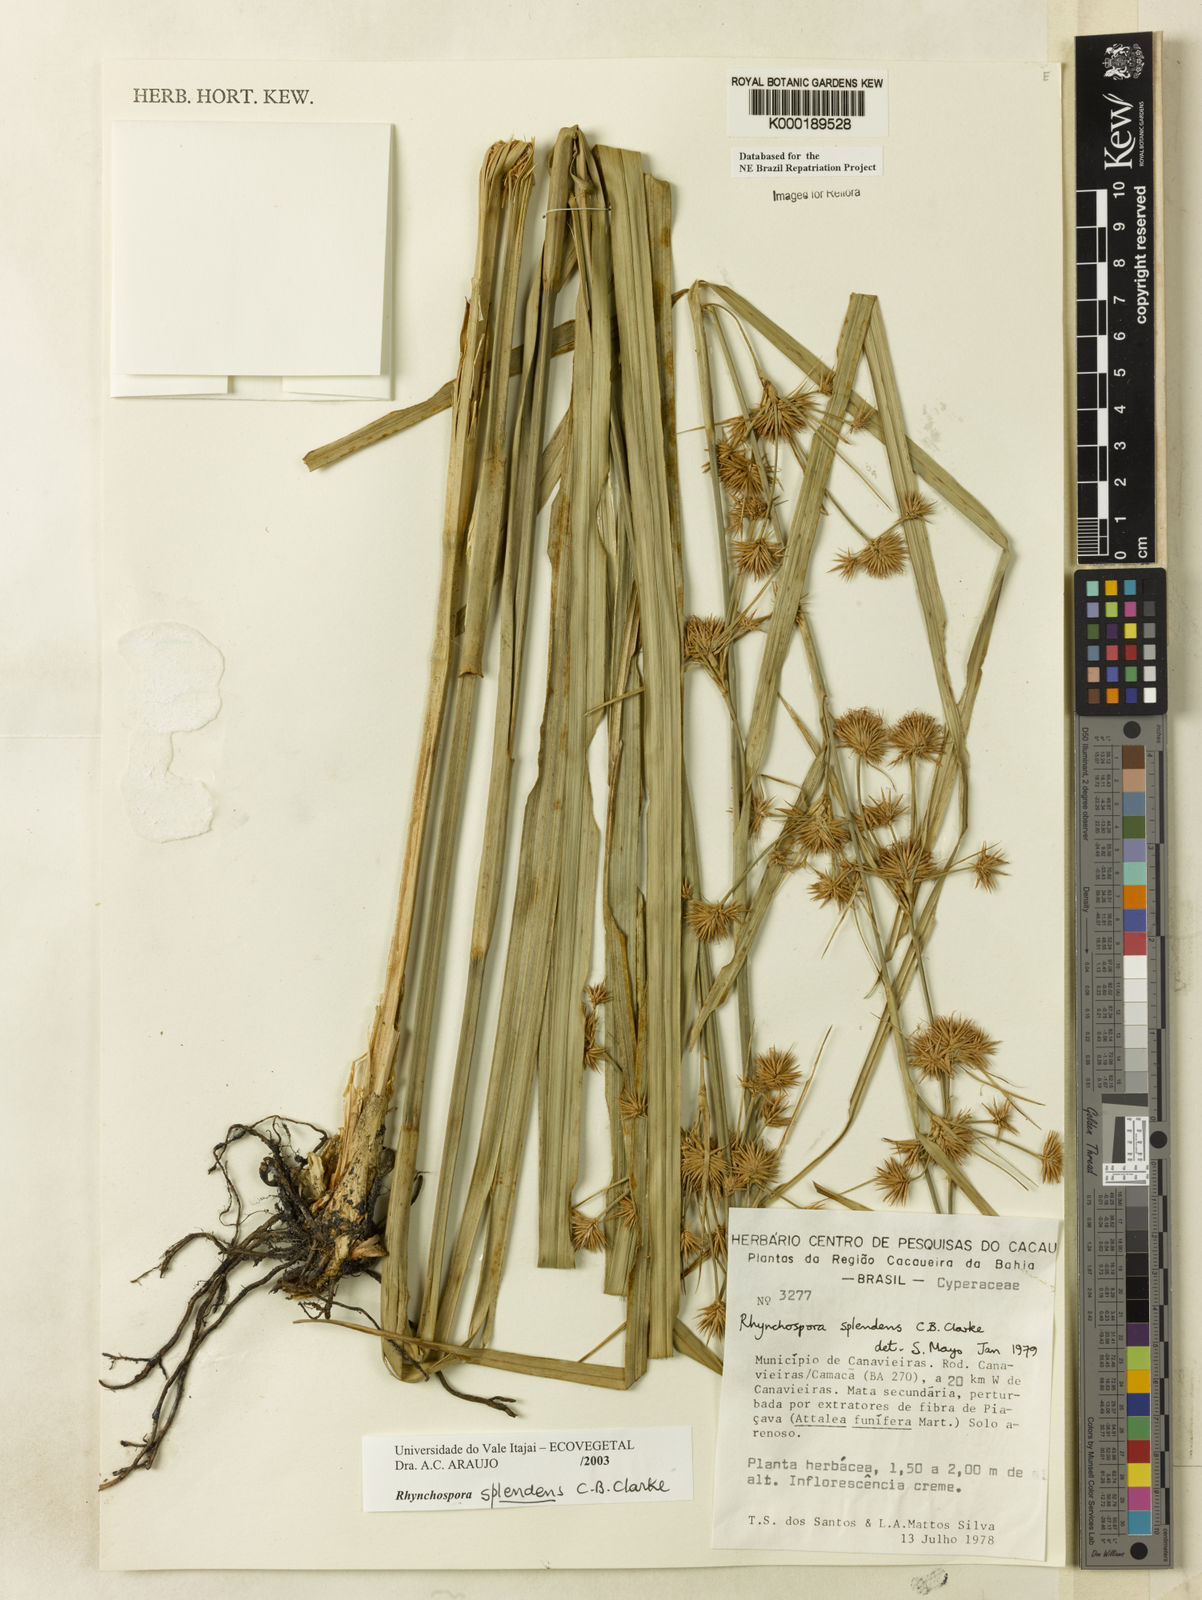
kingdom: Plantae
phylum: Tracheophyta
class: Liliopsida
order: Poales
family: Cyperaceae
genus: Rhynchospora
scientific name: Rhynchospora splendens
